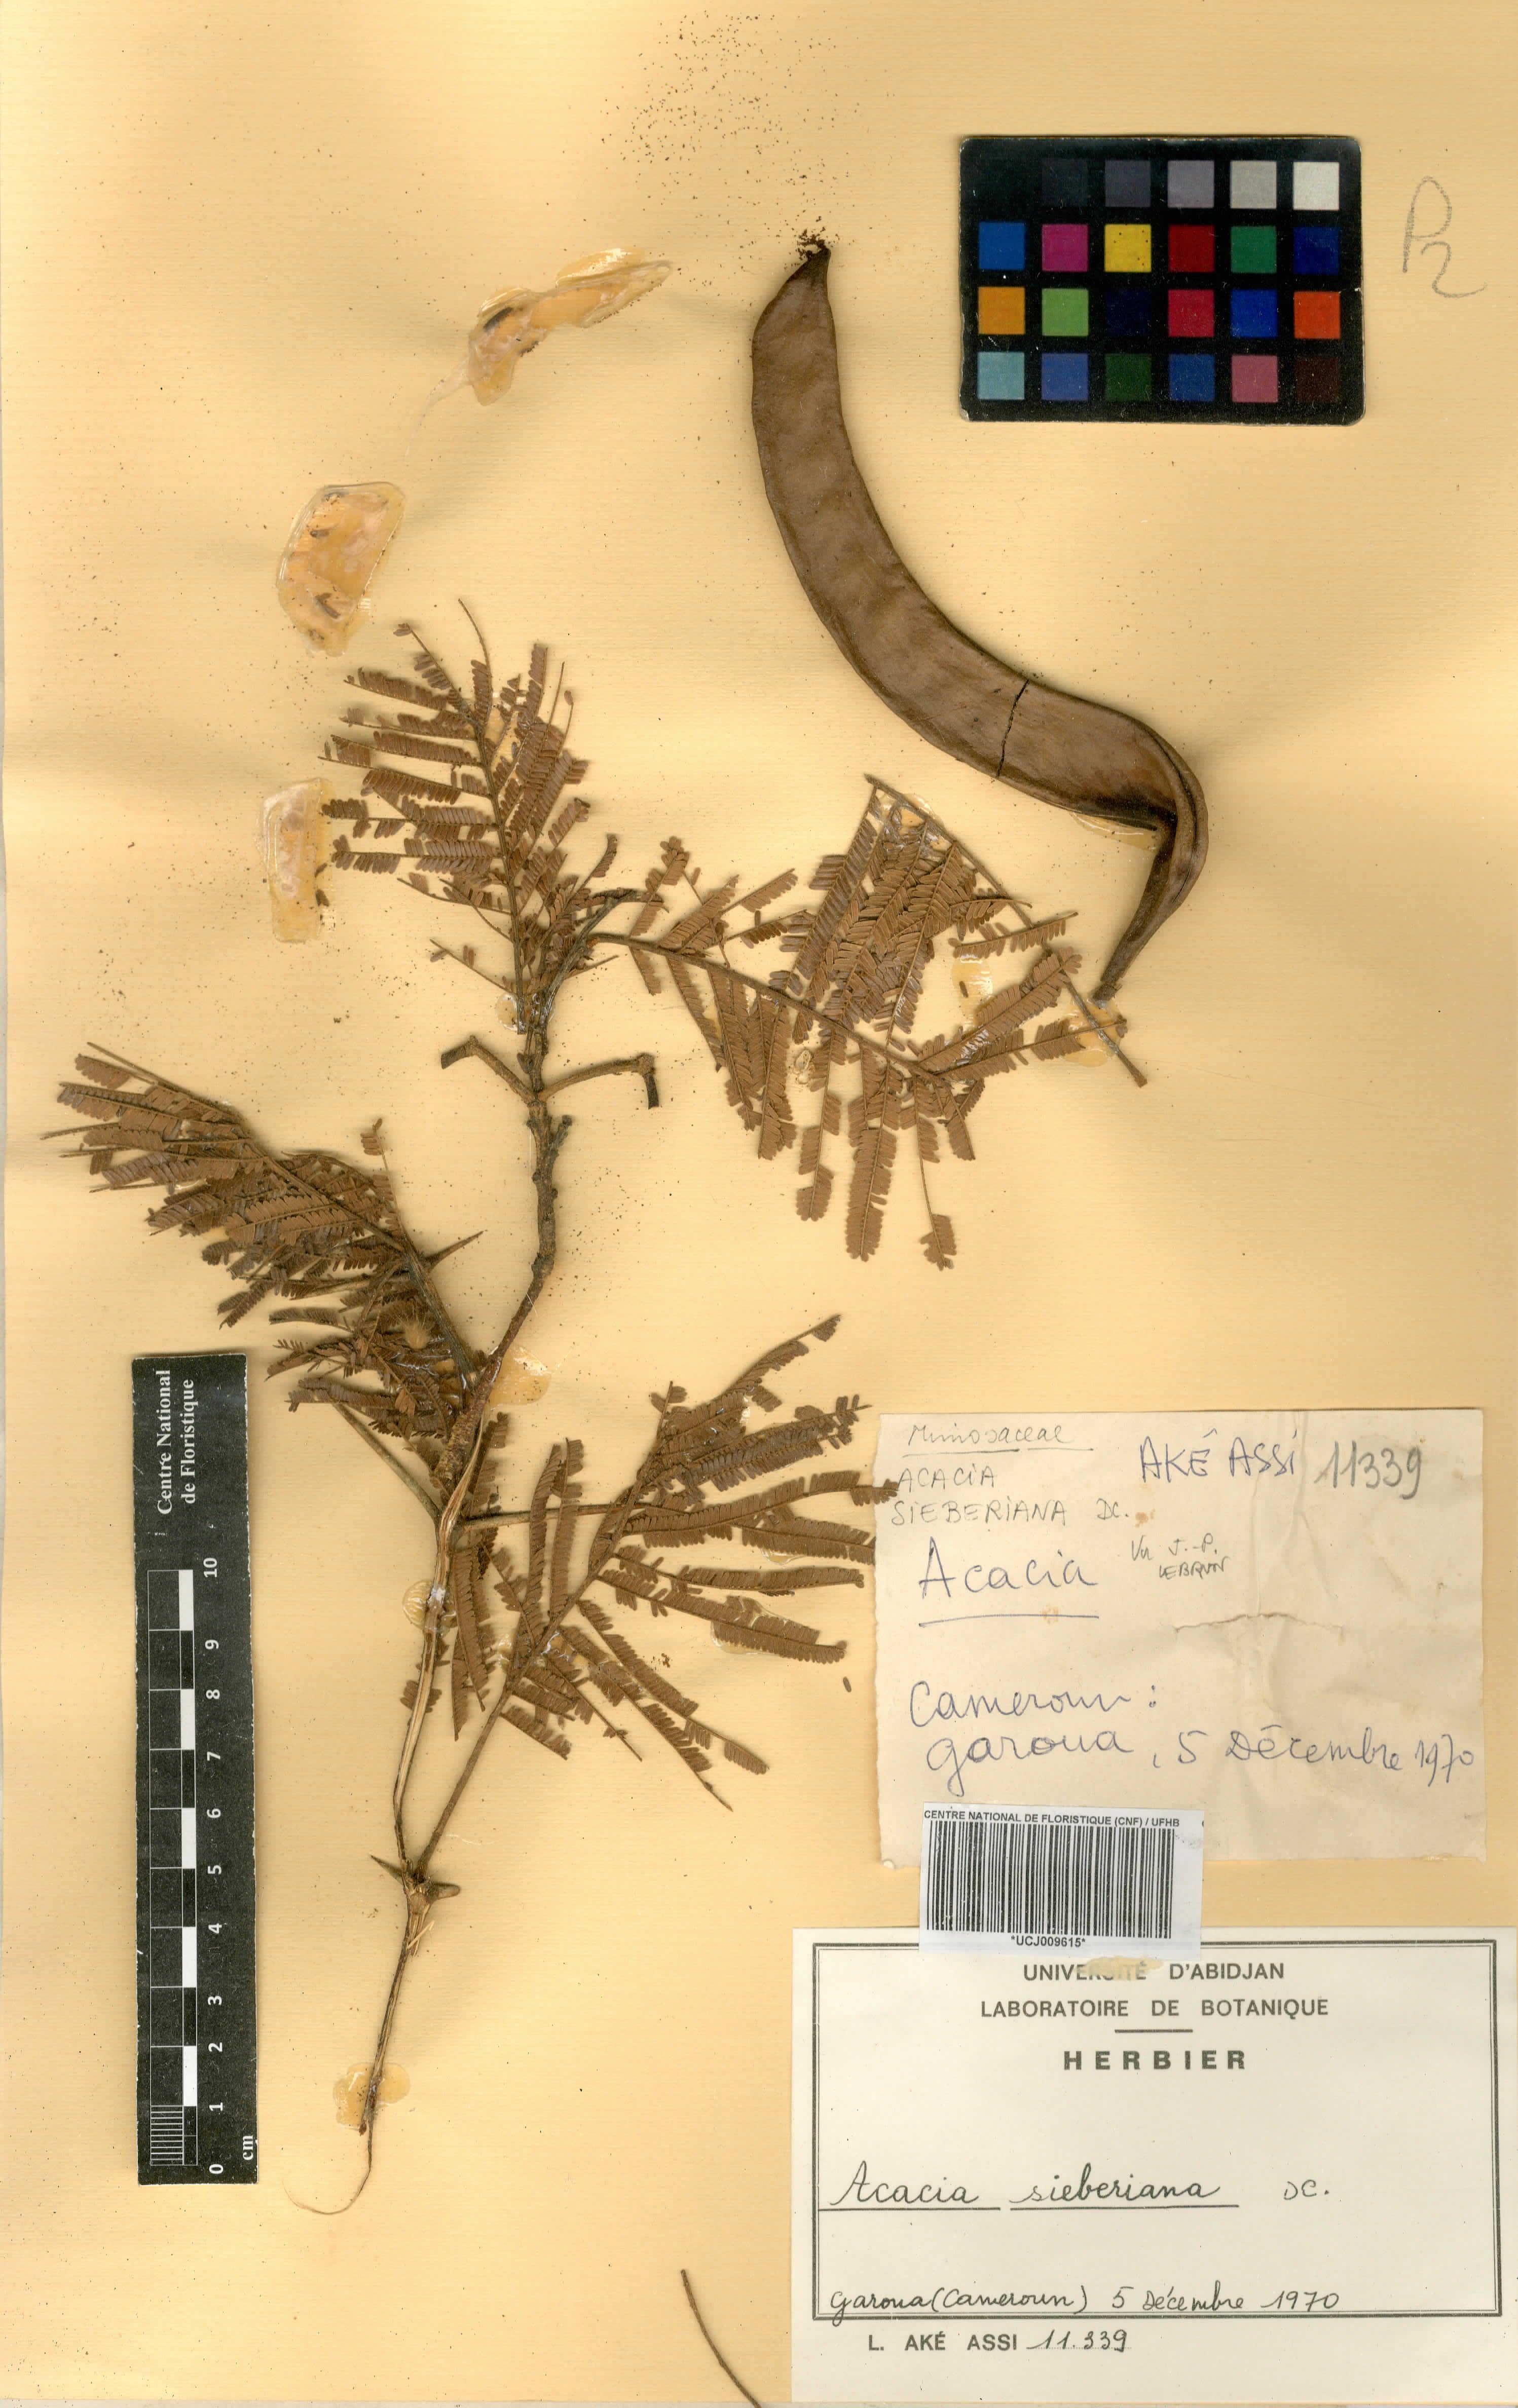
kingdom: Plantae
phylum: Tracheophyta
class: Magnoliopsida
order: Fabales
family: Fabaceae
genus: Vachellia
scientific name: Vachellia sieberiana
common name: Flat-topped thorn
